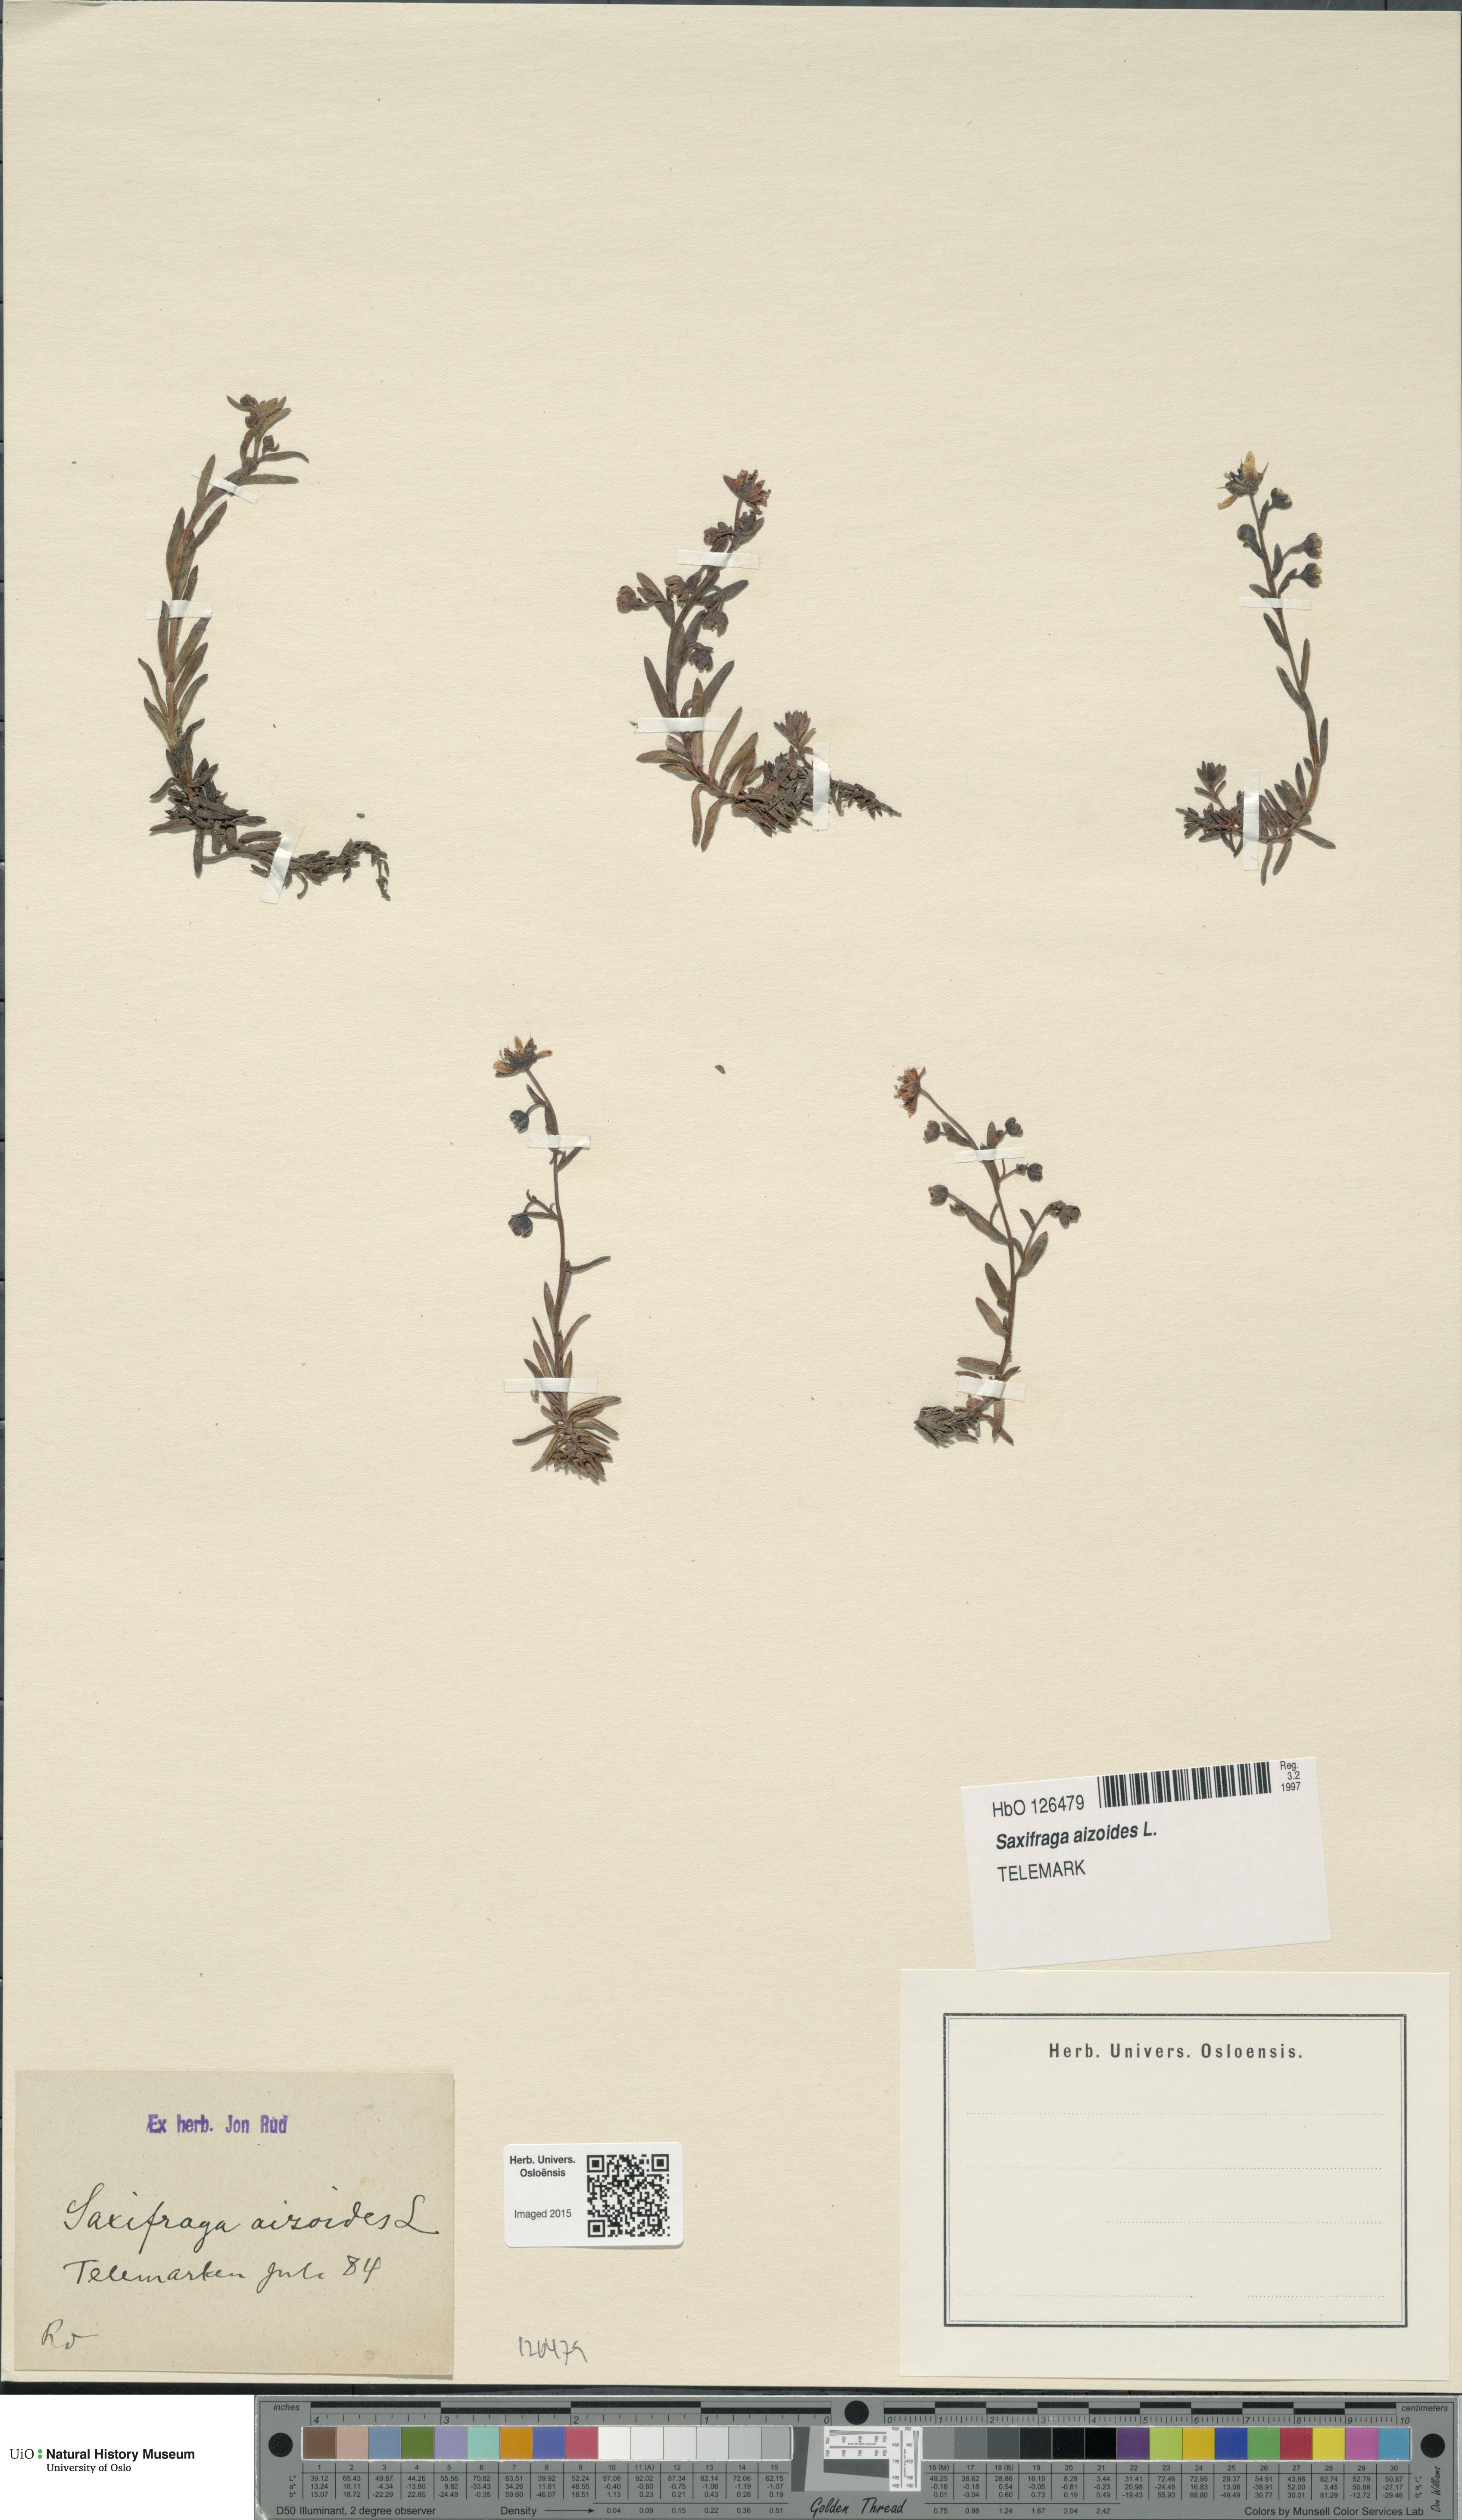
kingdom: Plantae
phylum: Tracheophyta
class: Magnoliopsida
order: Saxifragales
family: Saxifragaceae
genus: Saxifraga
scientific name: Saxifraga aizoides
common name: Yellow mountain saxifrage
